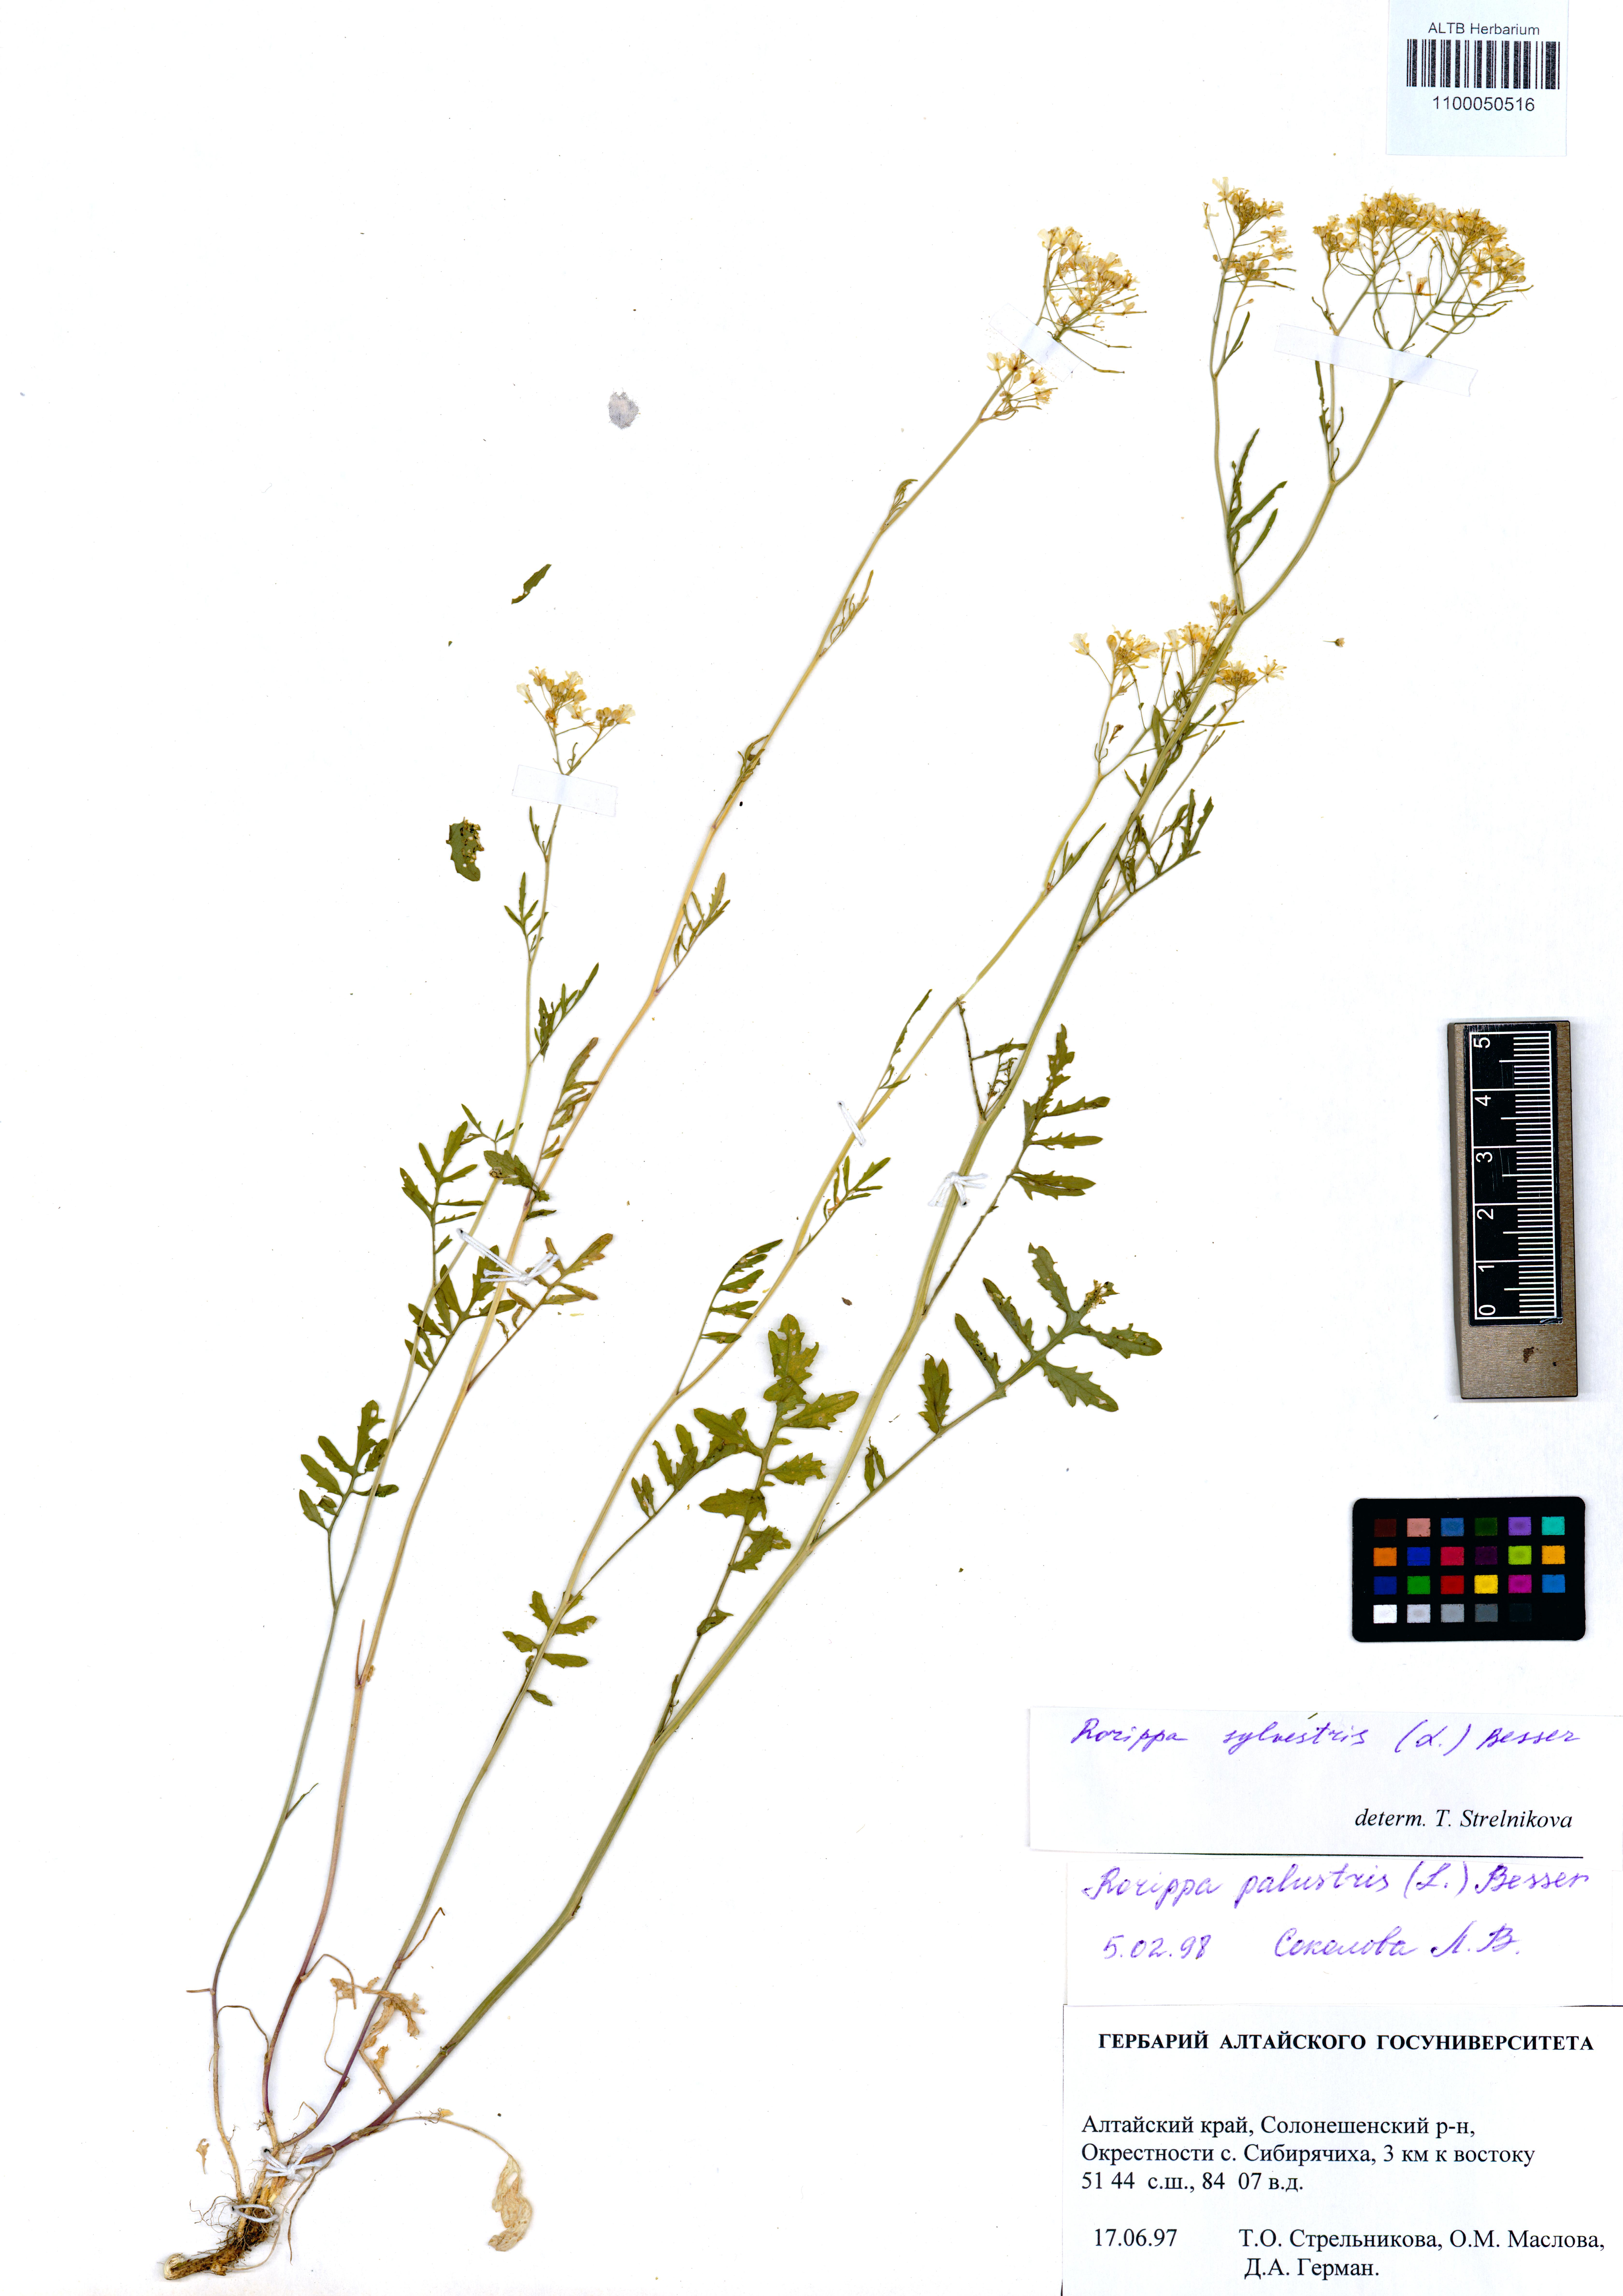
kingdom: Plantae
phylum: Tracheophyta
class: Magnoliopsida
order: Brassicales
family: Brassicaceae
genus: Rorippa
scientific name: Rorippa sylvestris
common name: Creeping yellowcress
